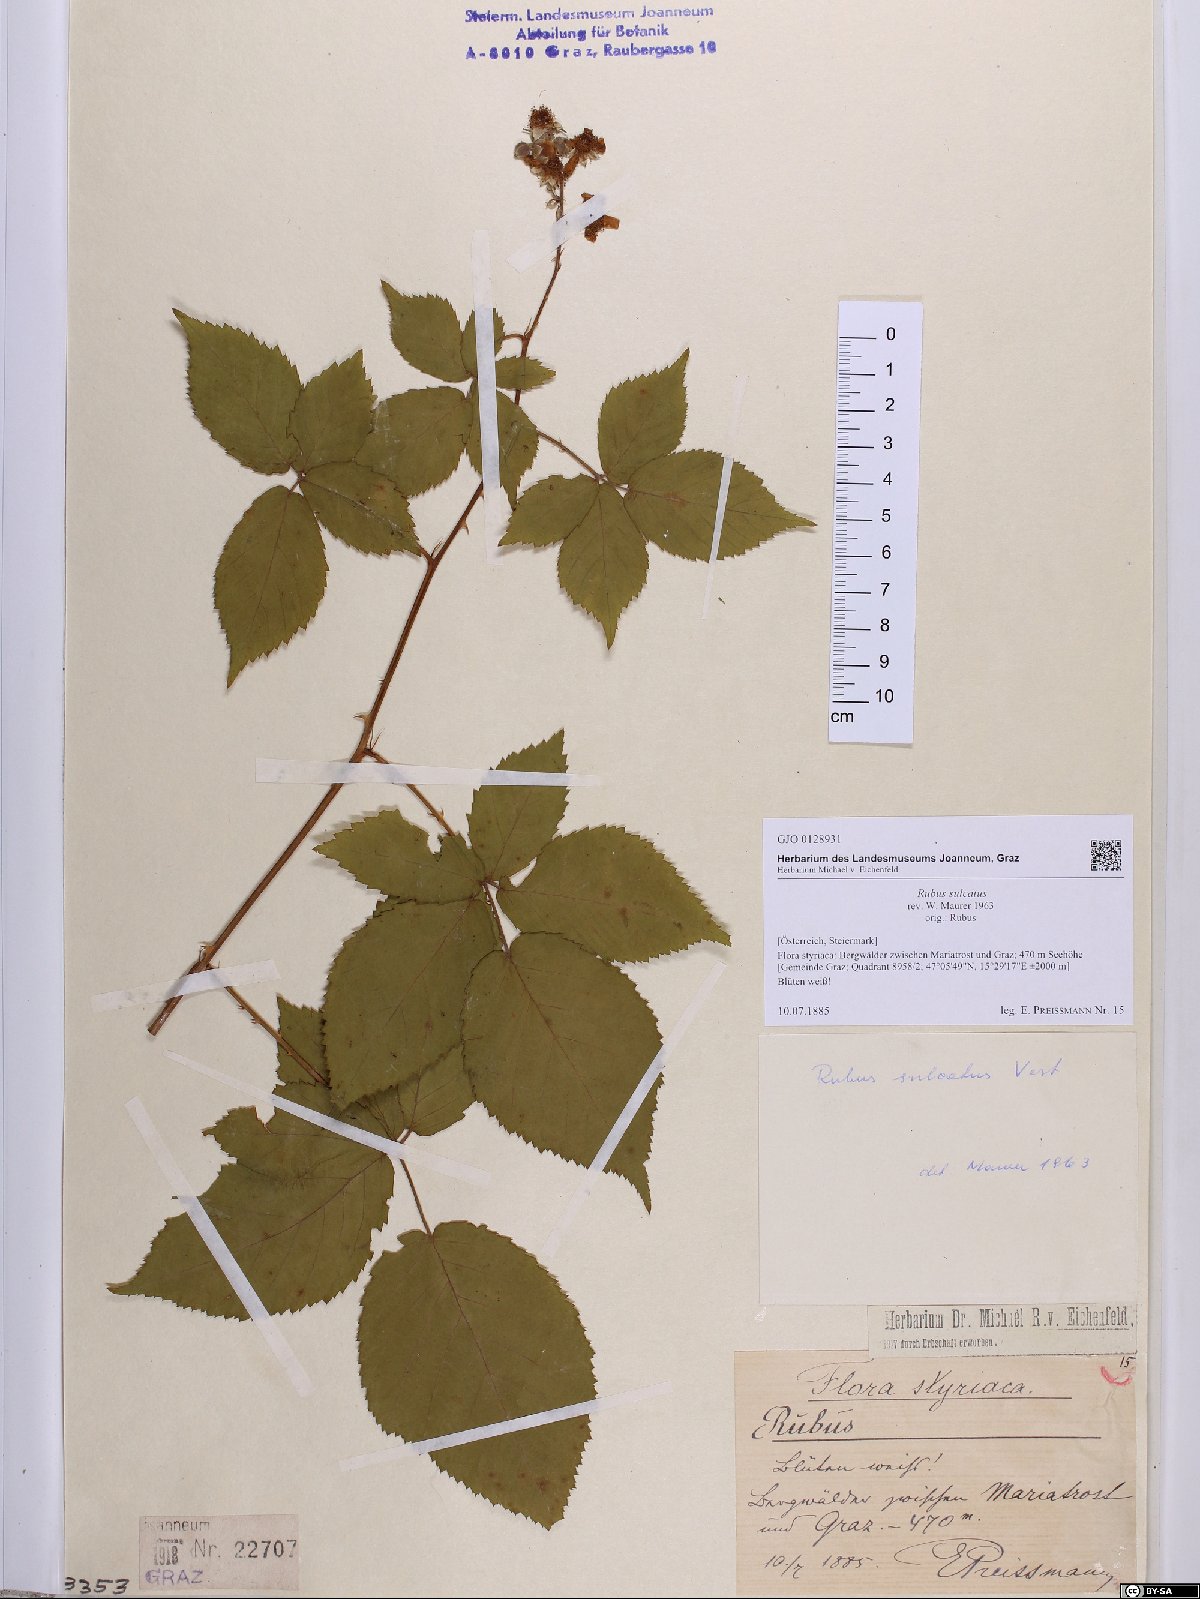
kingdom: Plantae
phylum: Tracheophyta
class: Magnoliopsida
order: Rosales
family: Rosaceae
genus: Rubus
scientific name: Rubus sulcatus
